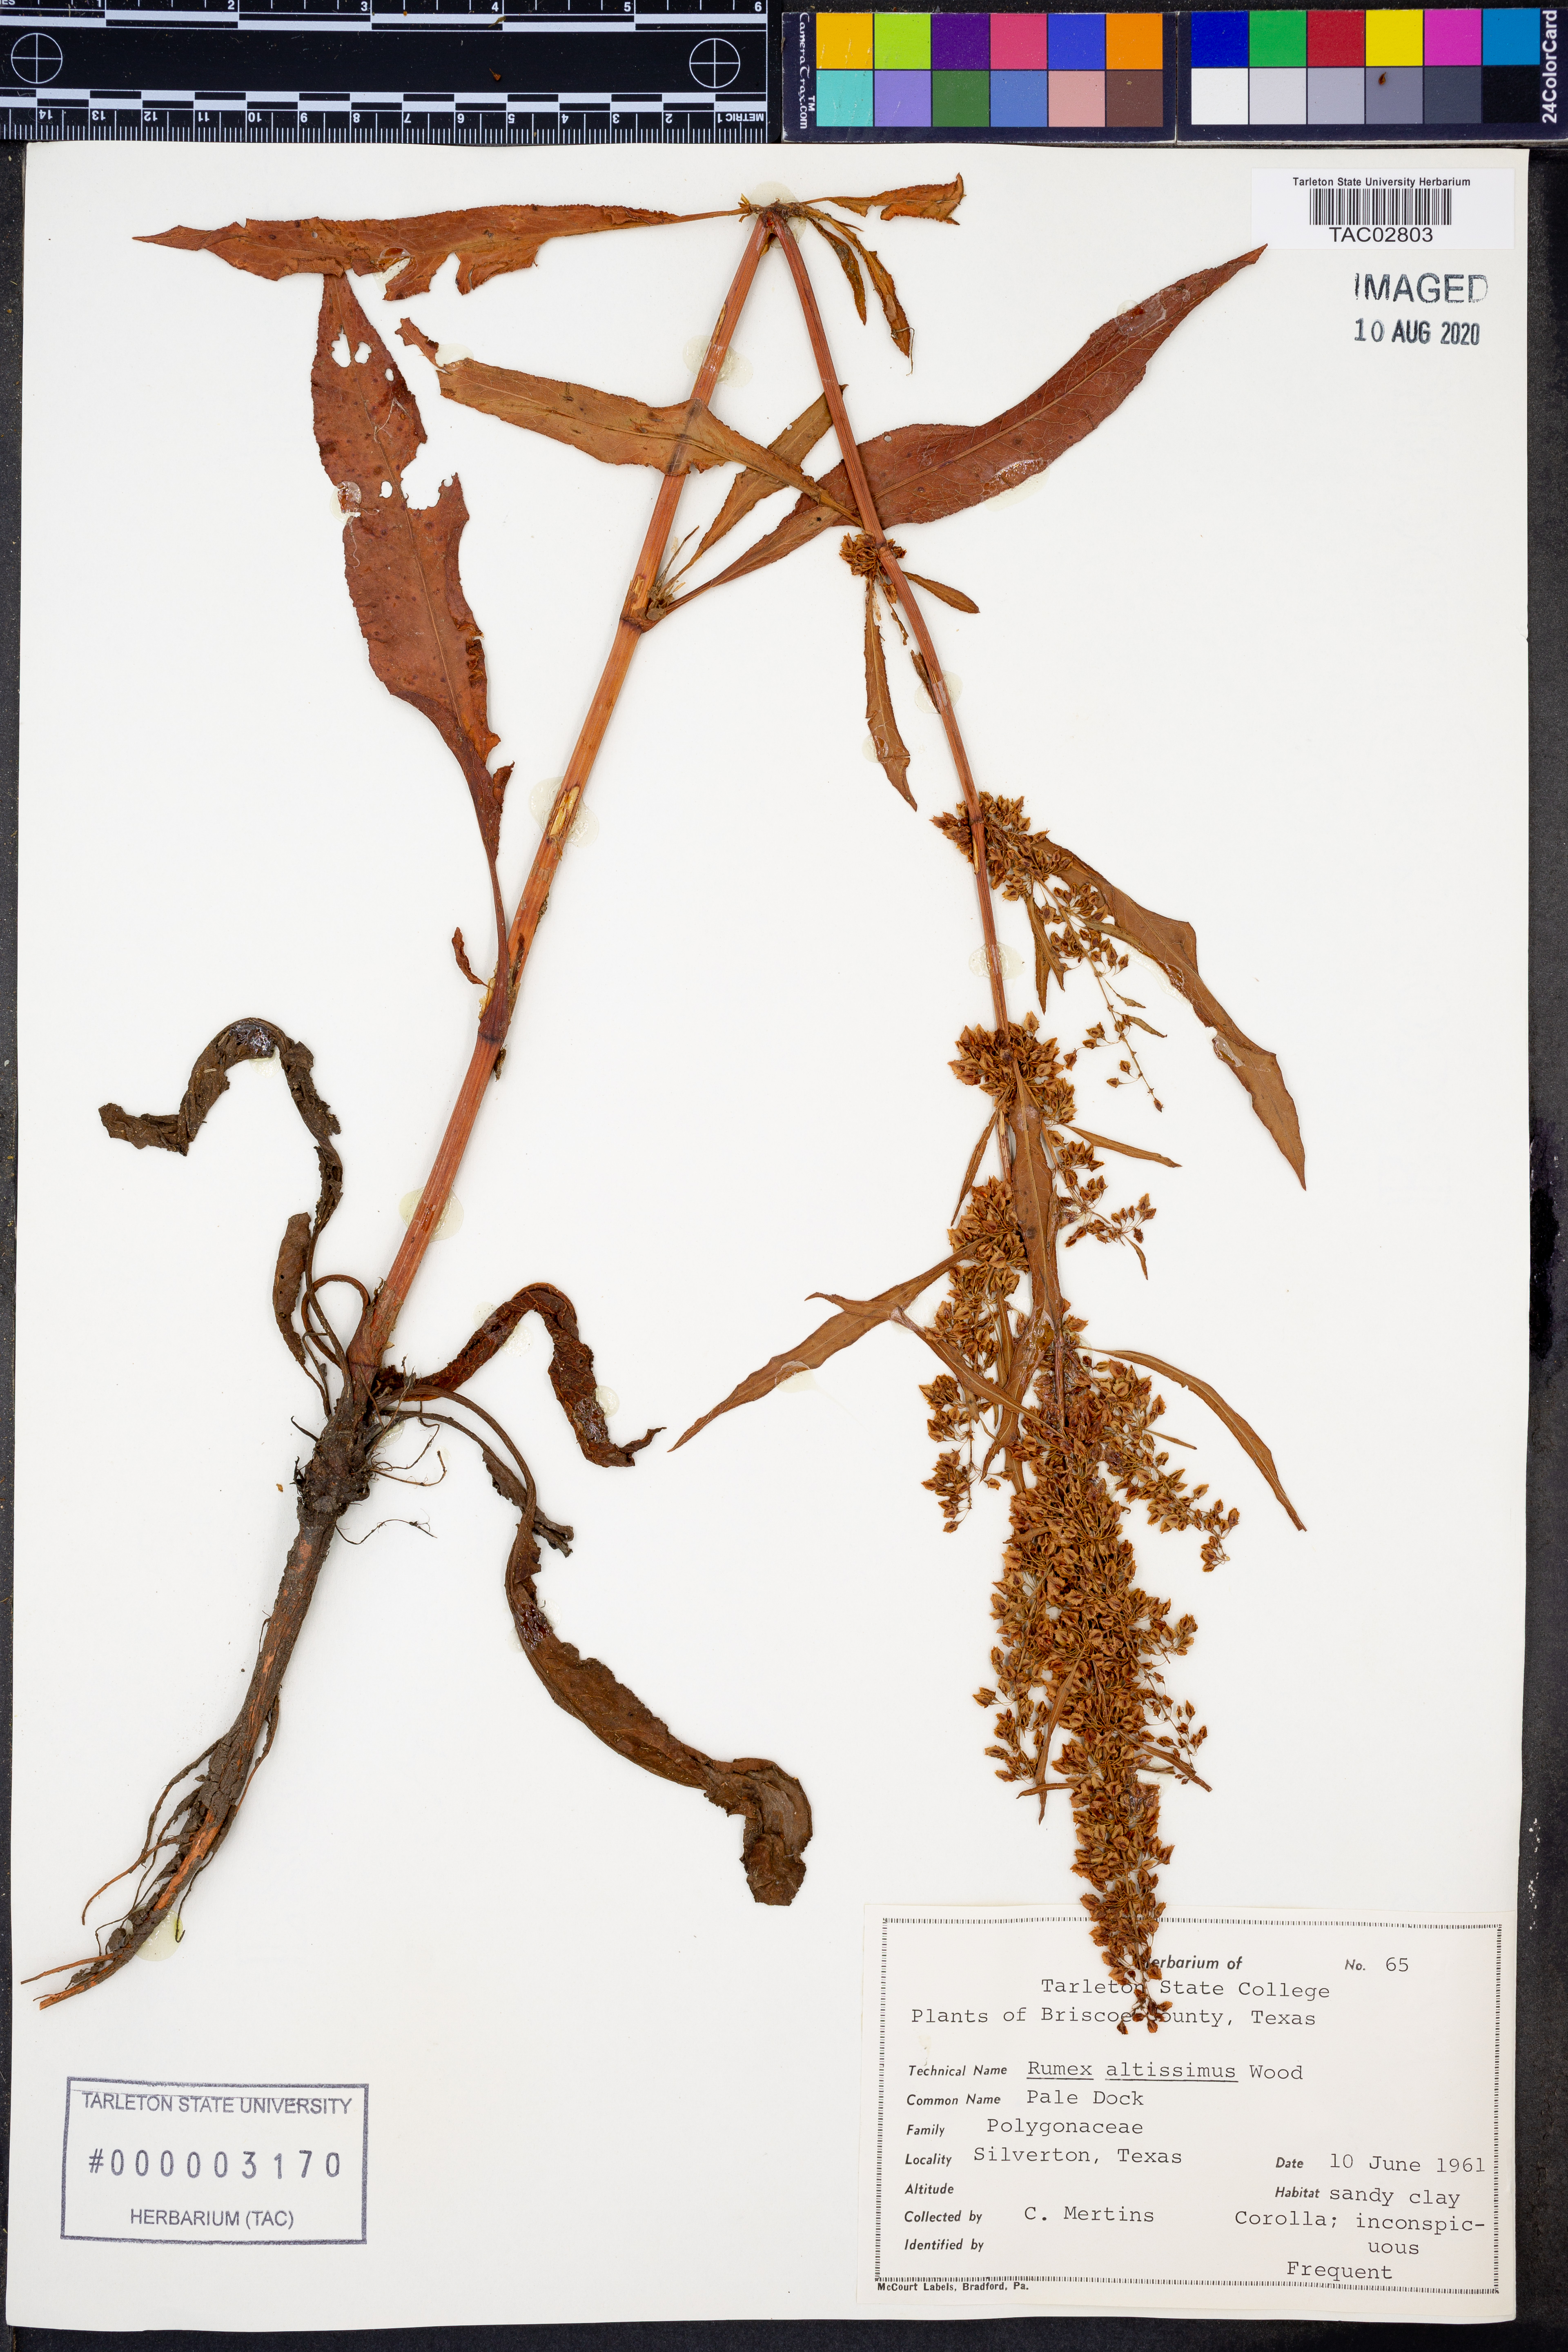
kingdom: Plantae
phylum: Tracheophyta
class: Magnoliopsida
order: Caryophyllales
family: Polygonaceae
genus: Rumex
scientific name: Rumex altissimus
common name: Smooth dock
